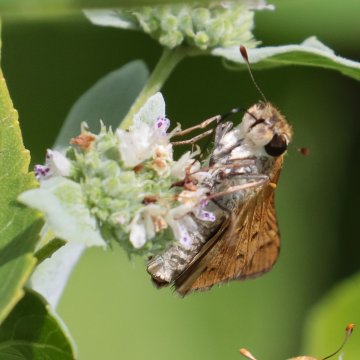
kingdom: Animalia
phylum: Arthropoda
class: Insecta
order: Lepidoptera
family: Hesperiidae
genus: Hylephila
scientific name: Hylephila phyleus
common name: Fiery Skipper
